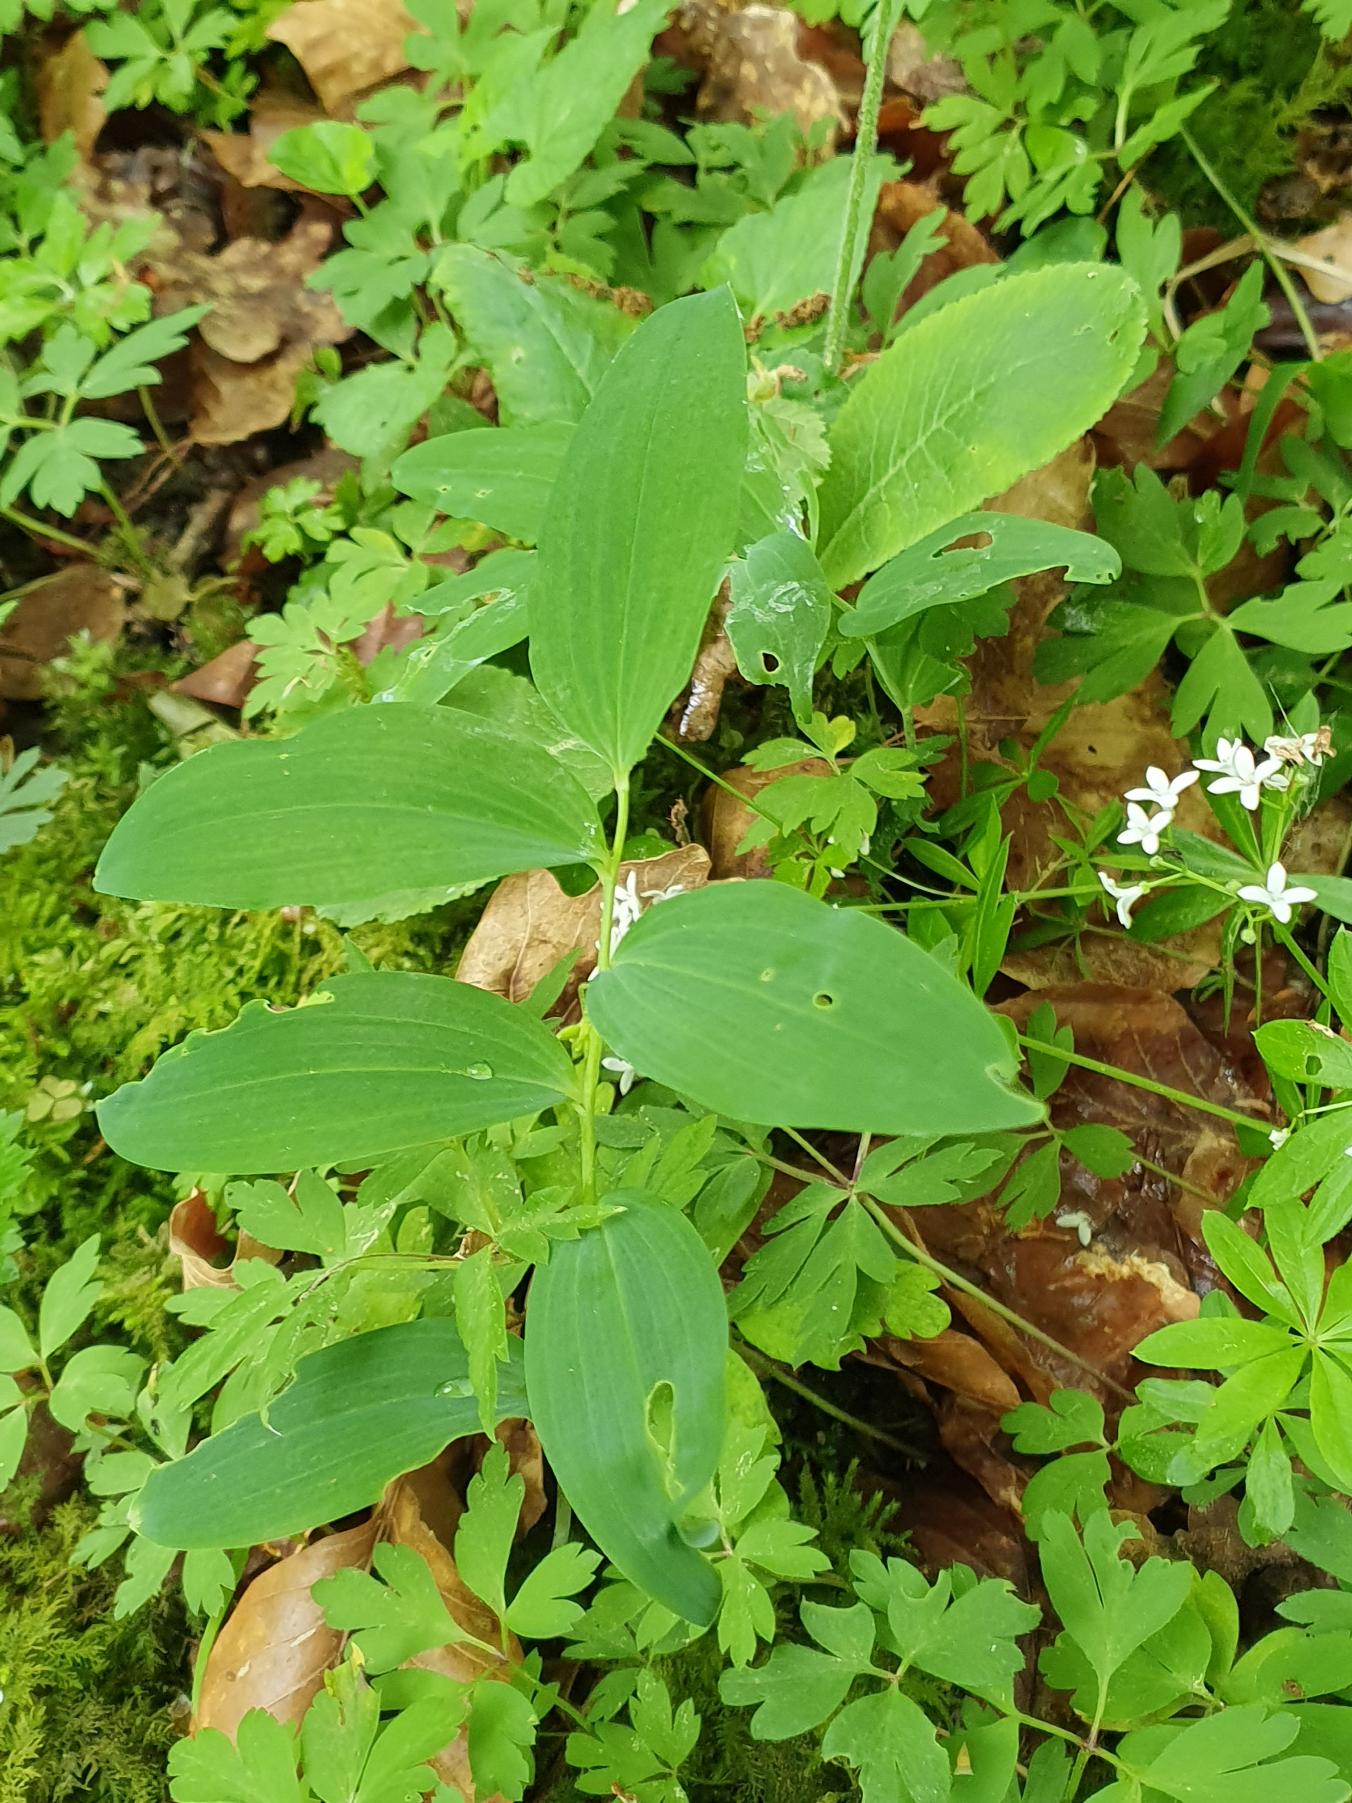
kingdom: Plantae
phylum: Tracheophyta
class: Liliopsida
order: Asparagales
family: Asparagaceae
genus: Polygonatum
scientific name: Polygonatum multiflorum
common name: Stor konval
